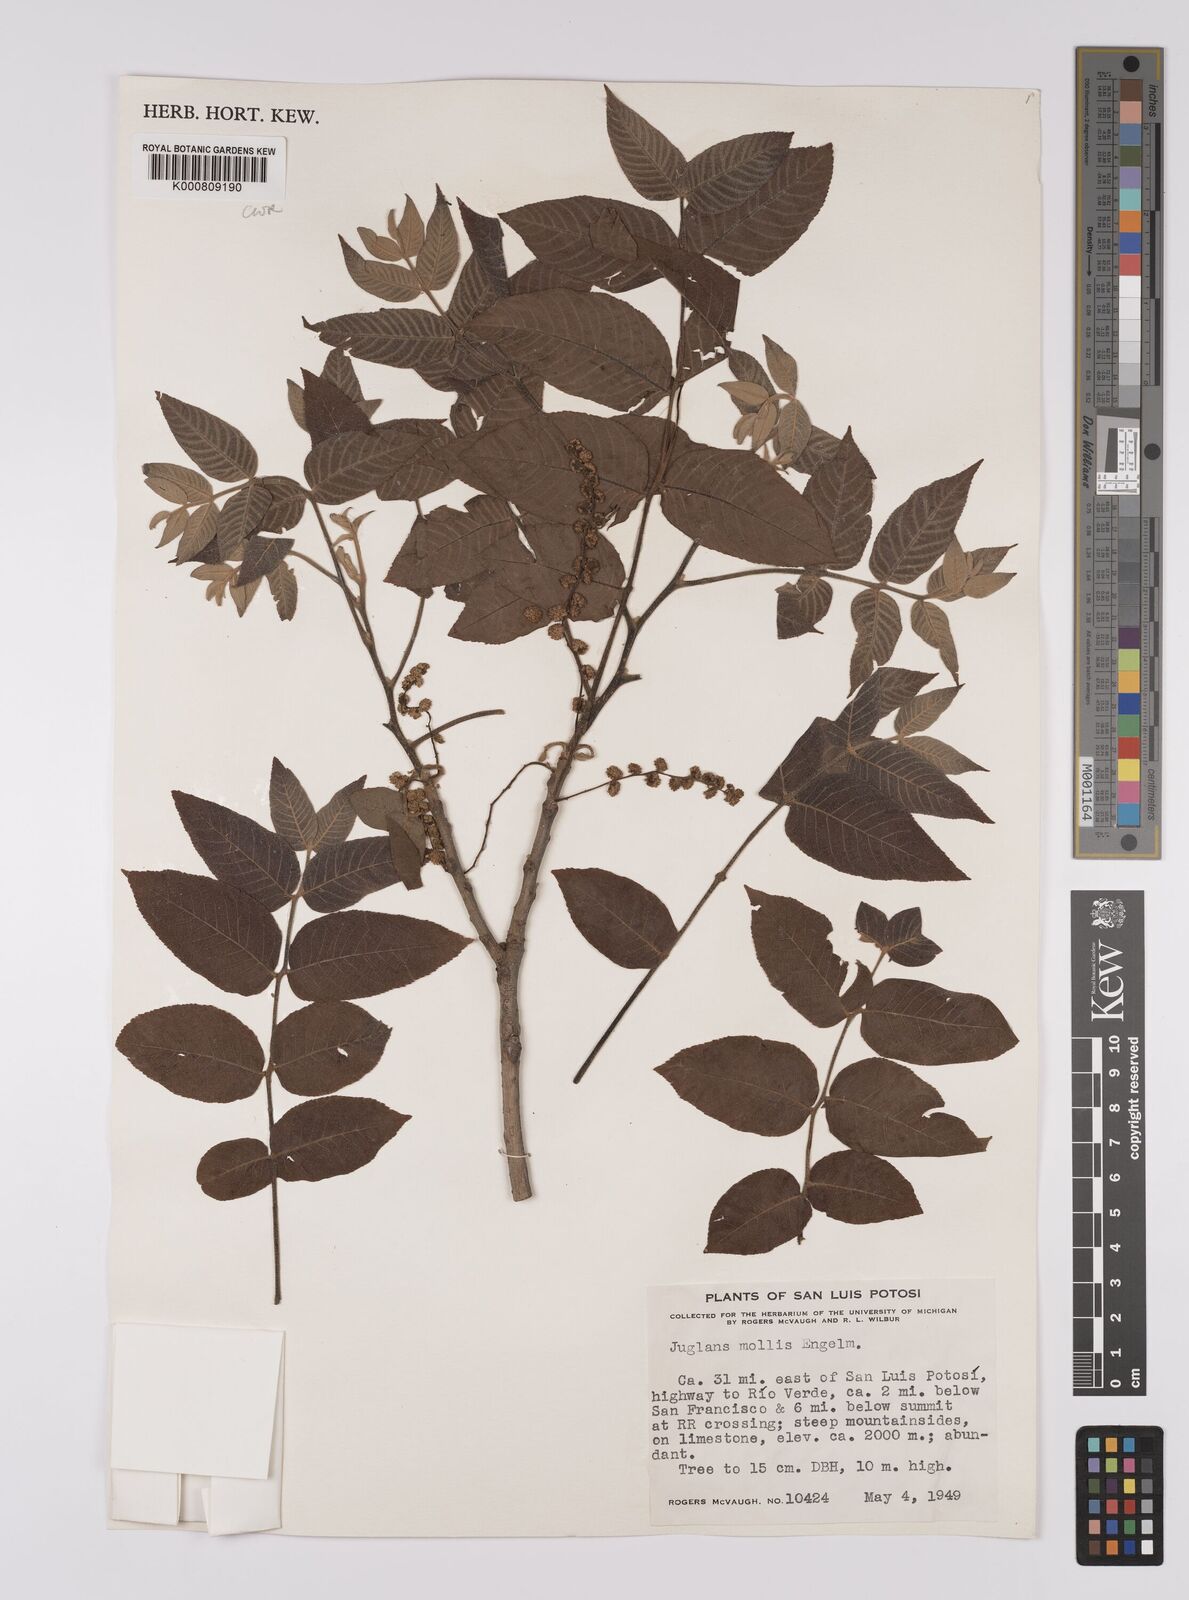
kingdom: Plantae
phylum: Tracheophyta
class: Magnoliopsida
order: Fagales
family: Juglandaceae
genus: Juglans
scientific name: Juglans mollis
